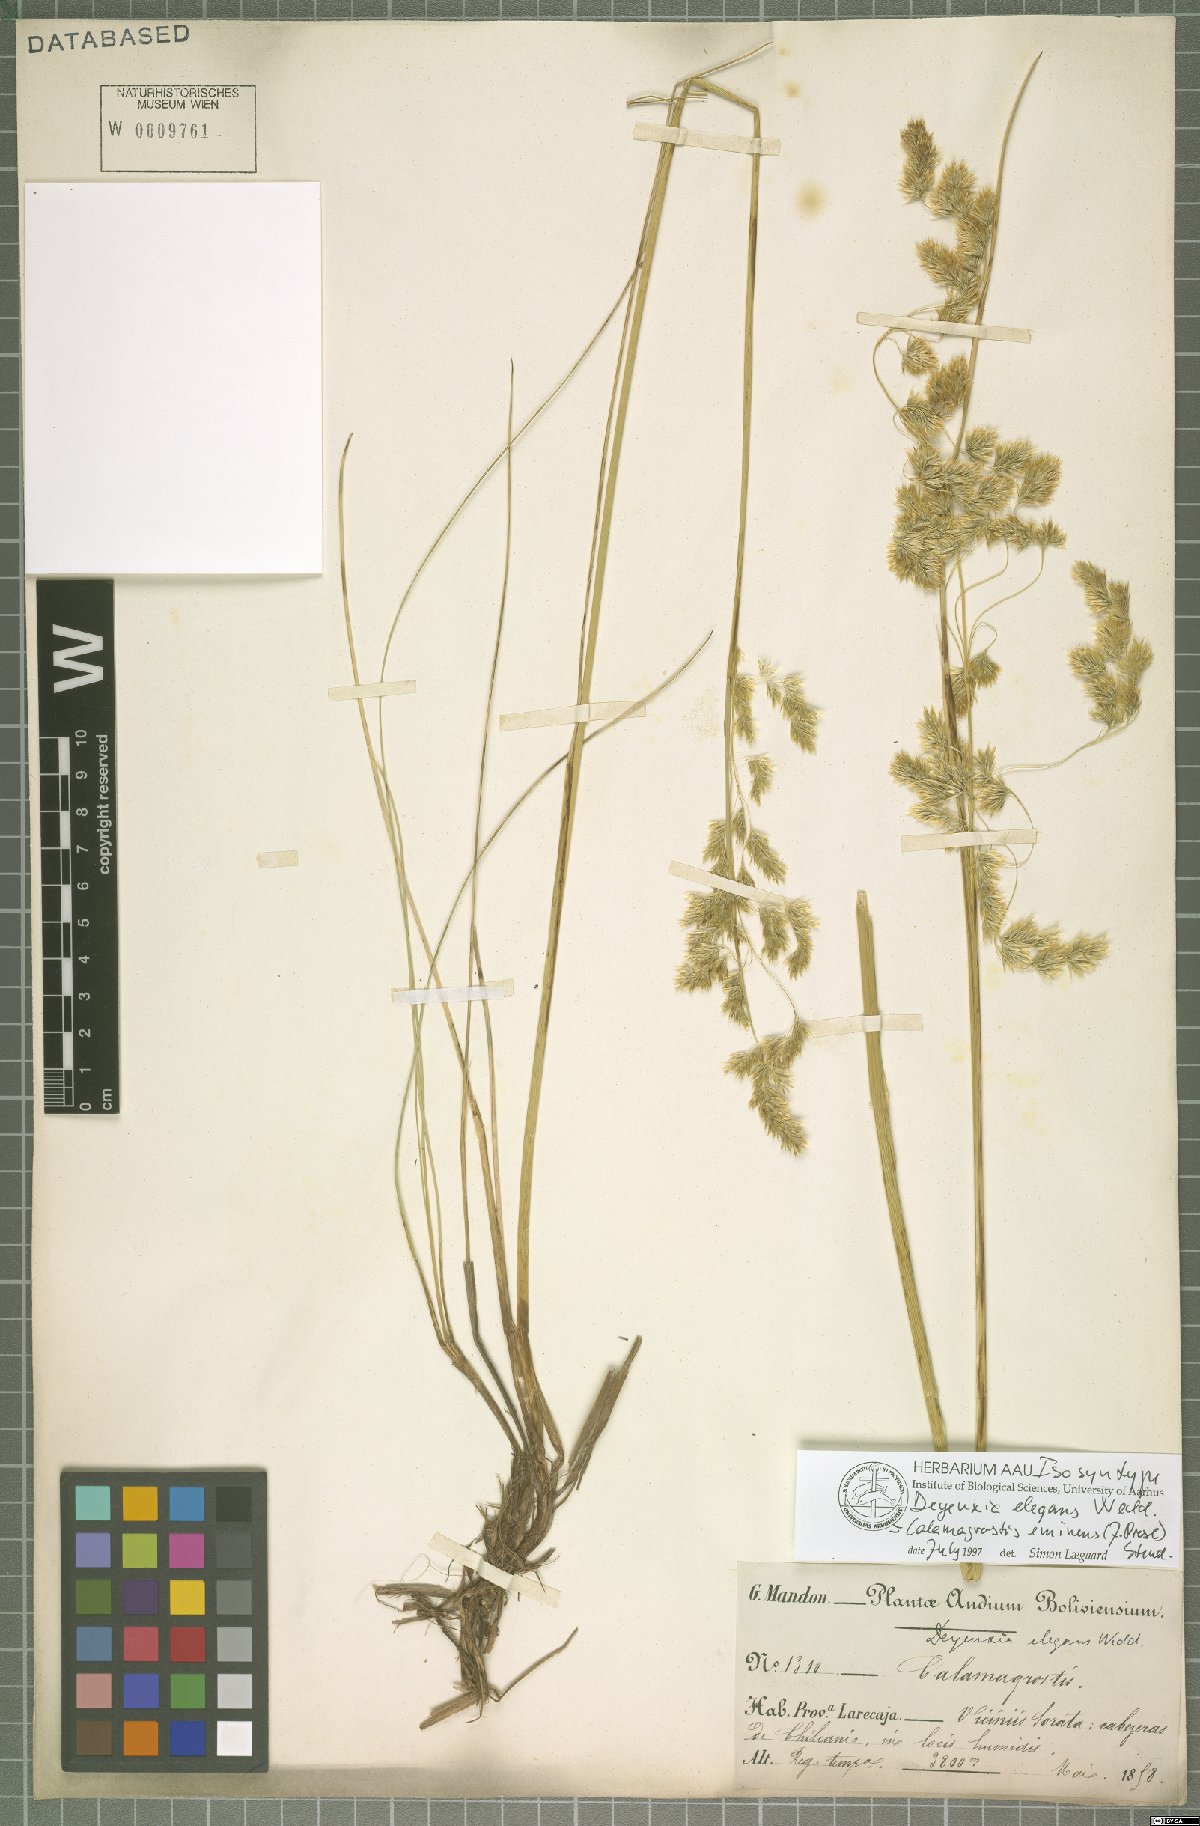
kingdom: Plantae
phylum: Tracheophyta
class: Liliopsida
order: Poales
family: Poaceae
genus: Deschampsia
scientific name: Deschampsia eminens
